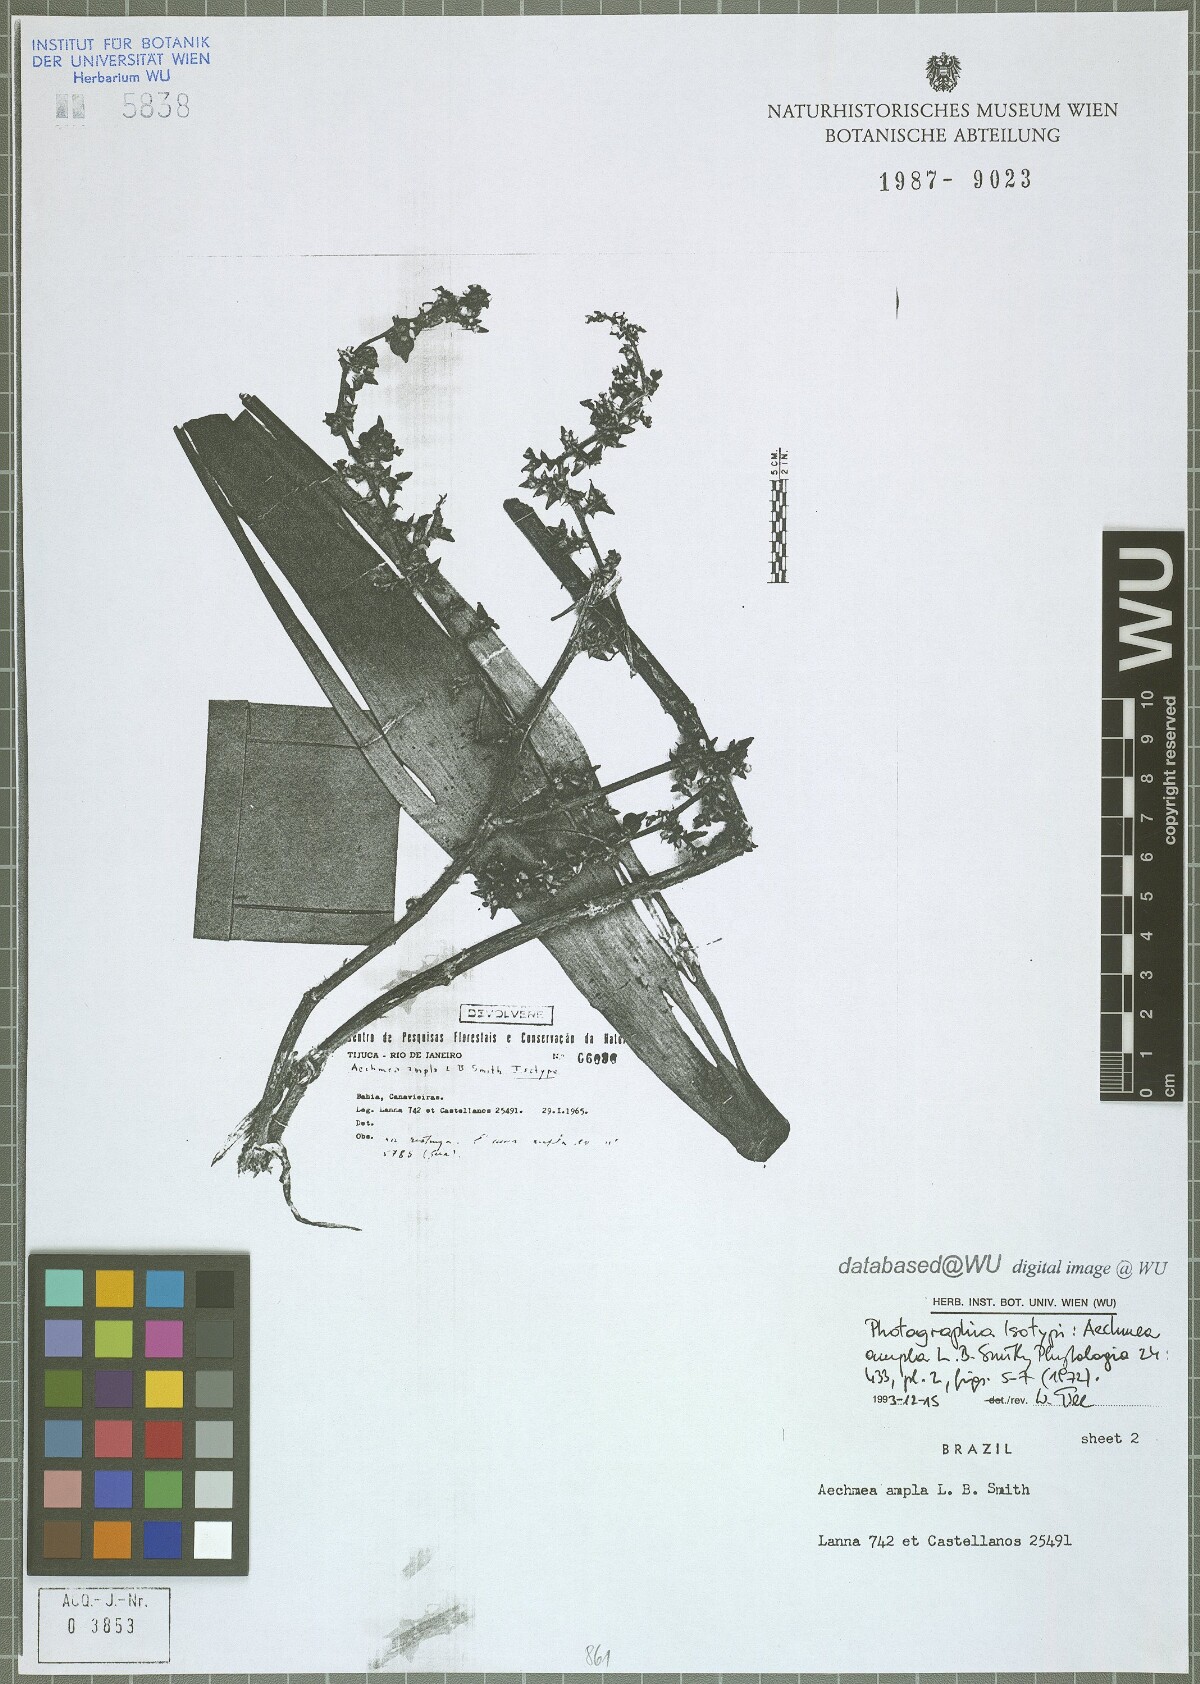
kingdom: Plantae
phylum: Tracheophyta
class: Liliopsida
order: Poales
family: Bromeliaceae
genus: Aechmea
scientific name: Aechmea ampla
